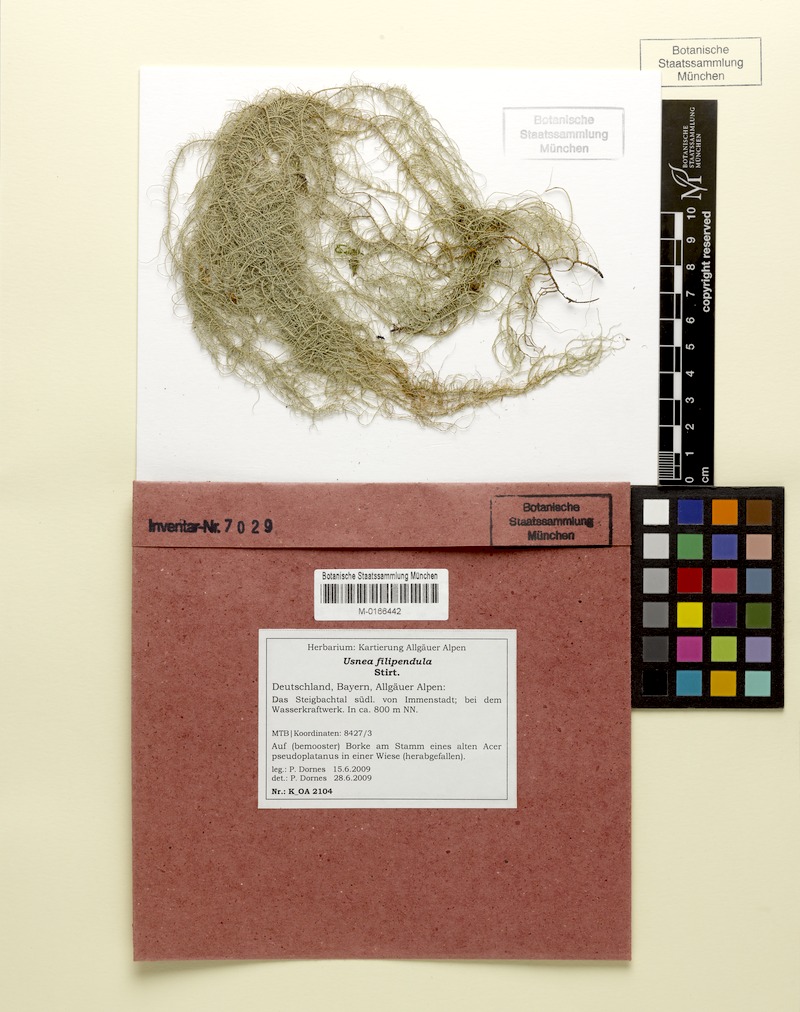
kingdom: Fungi
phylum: Ascomycota
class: Lecanoromycetes
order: Lecanorales
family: Parmeliaceae
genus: Usnea
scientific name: Usnea filipendula
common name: Fishbone beard lichen
